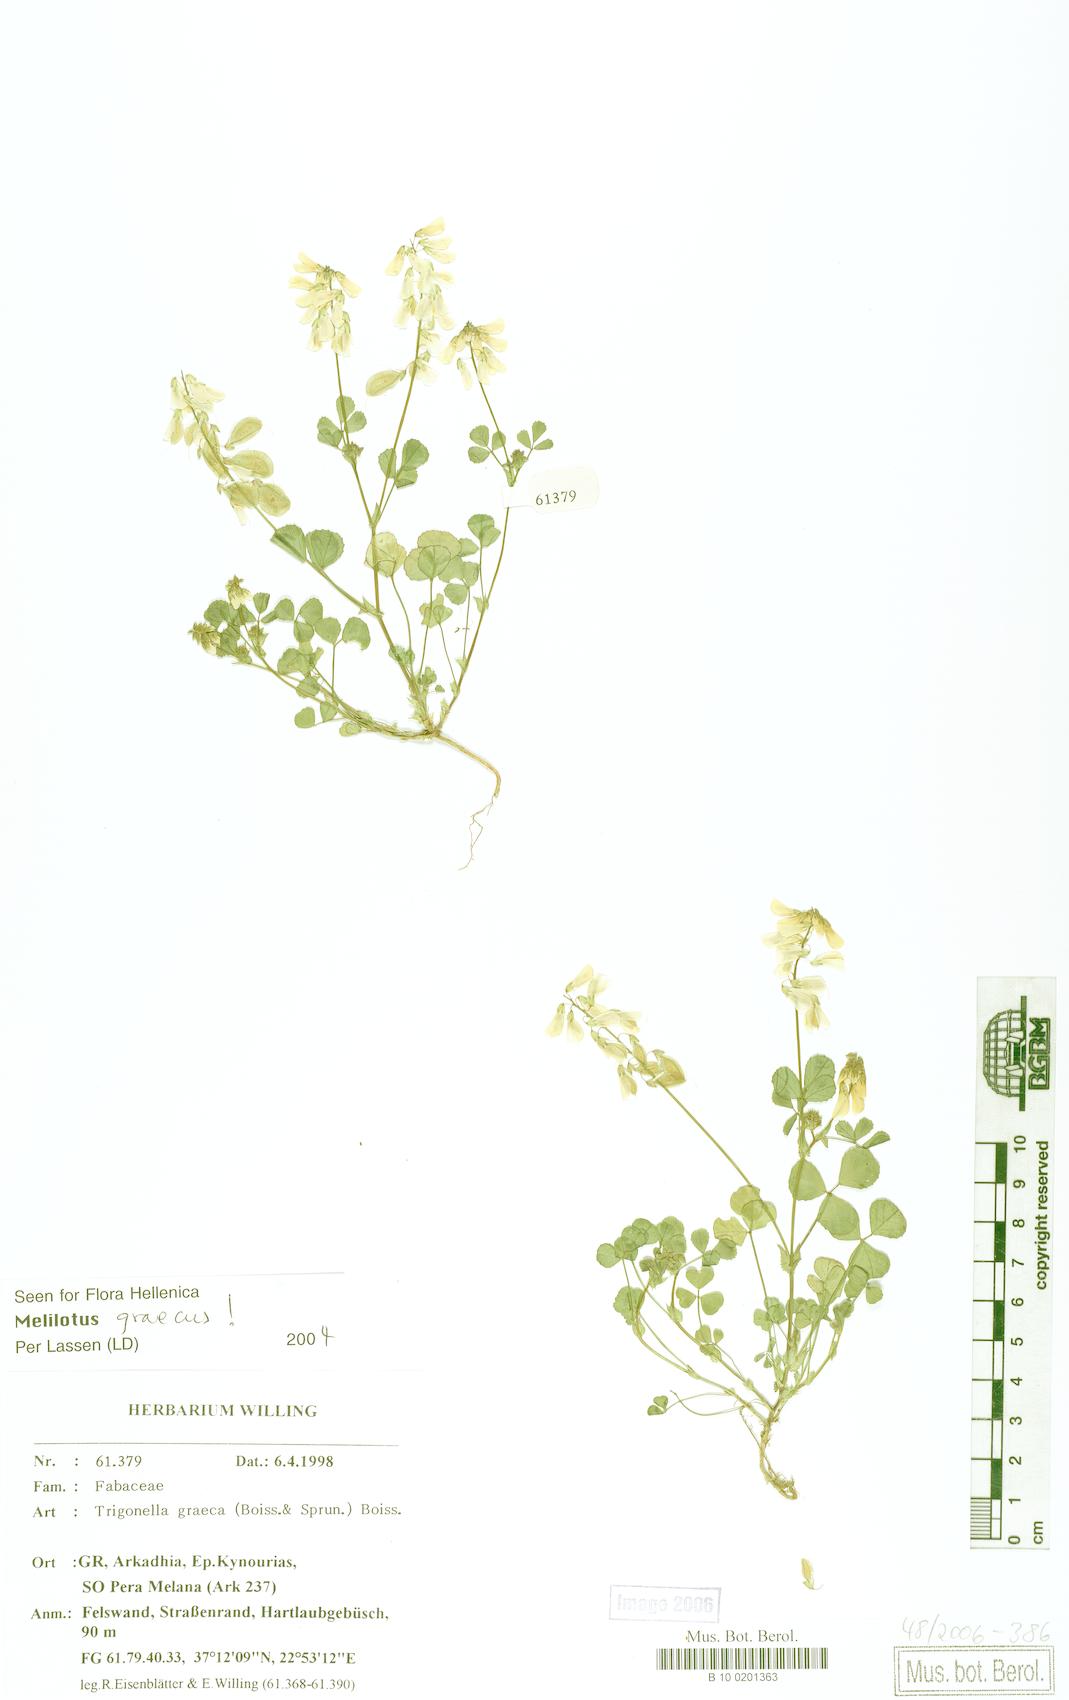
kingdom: Plantae
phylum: Tracheophyta
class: Magnoliopsida
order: Fabales
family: Fabaceae
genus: Trigonella
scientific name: Trigonella graeca
